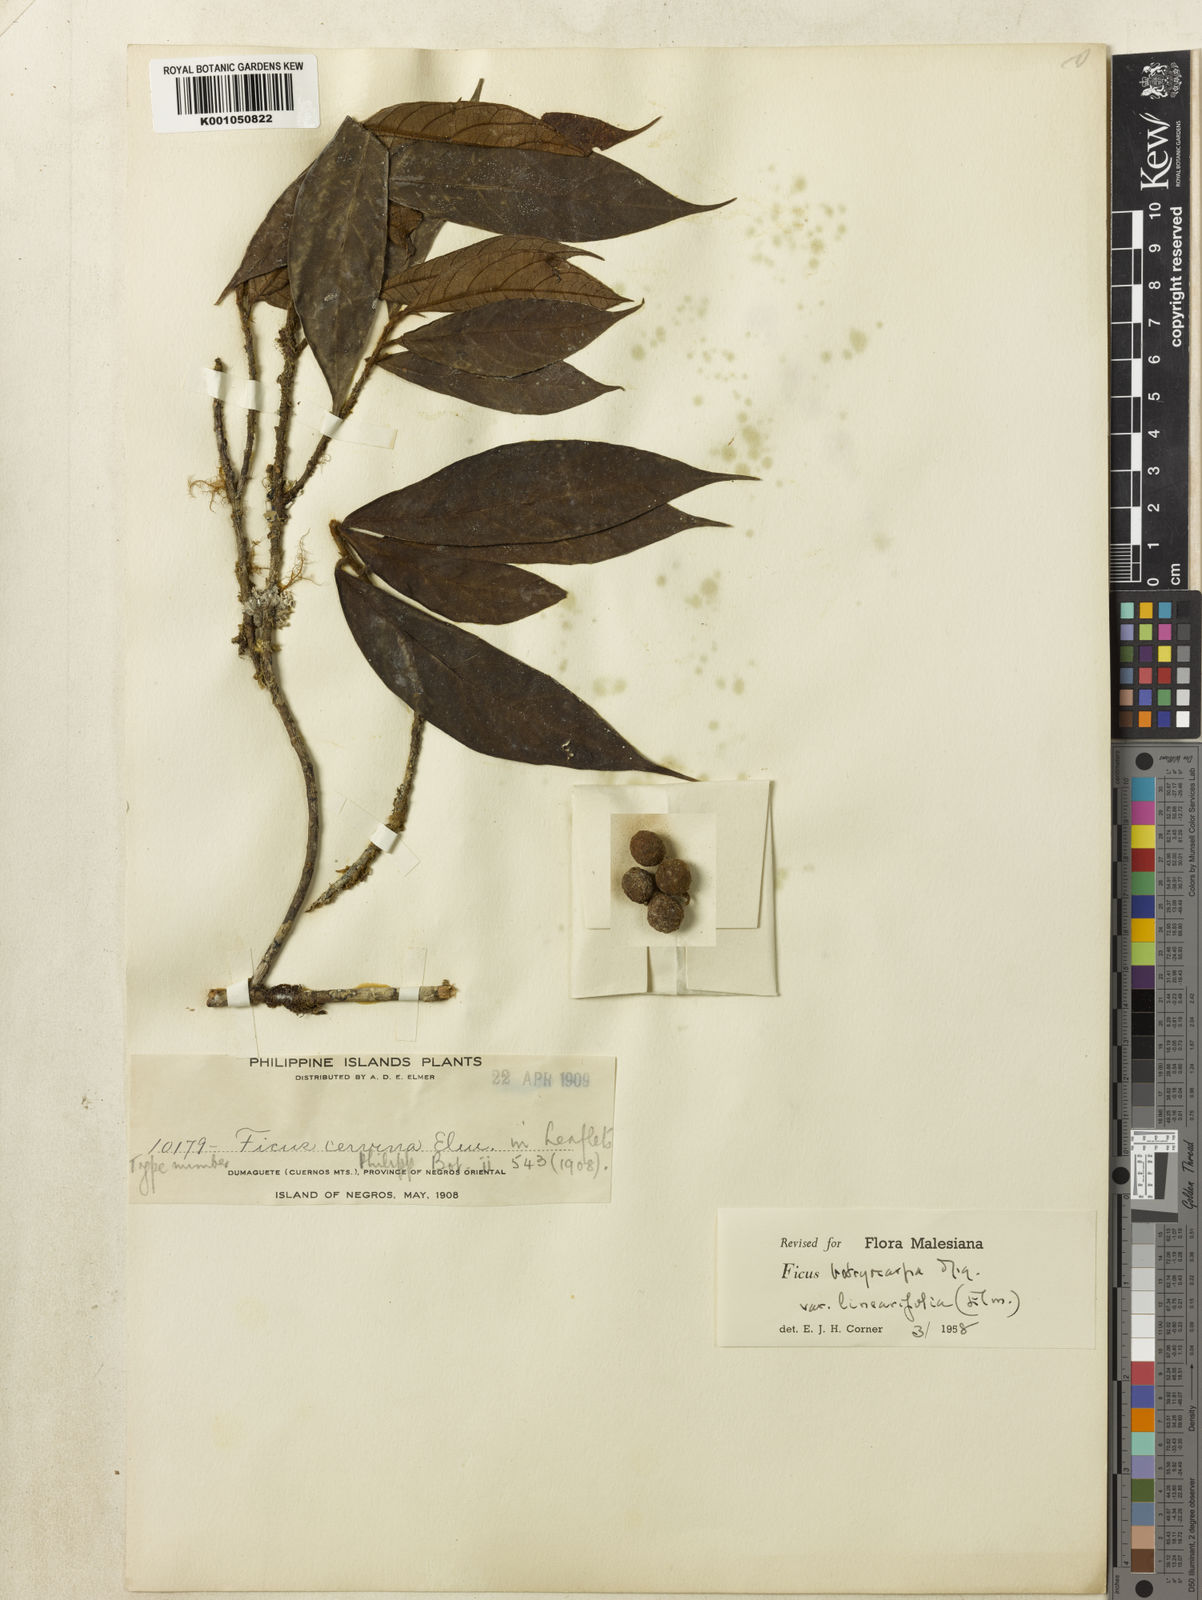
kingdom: Plantae
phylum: Tracheophyta
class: Magnoliopsida
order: Rosales
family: Moraceae
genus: Ficus
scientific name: Ficus botryocarpa
